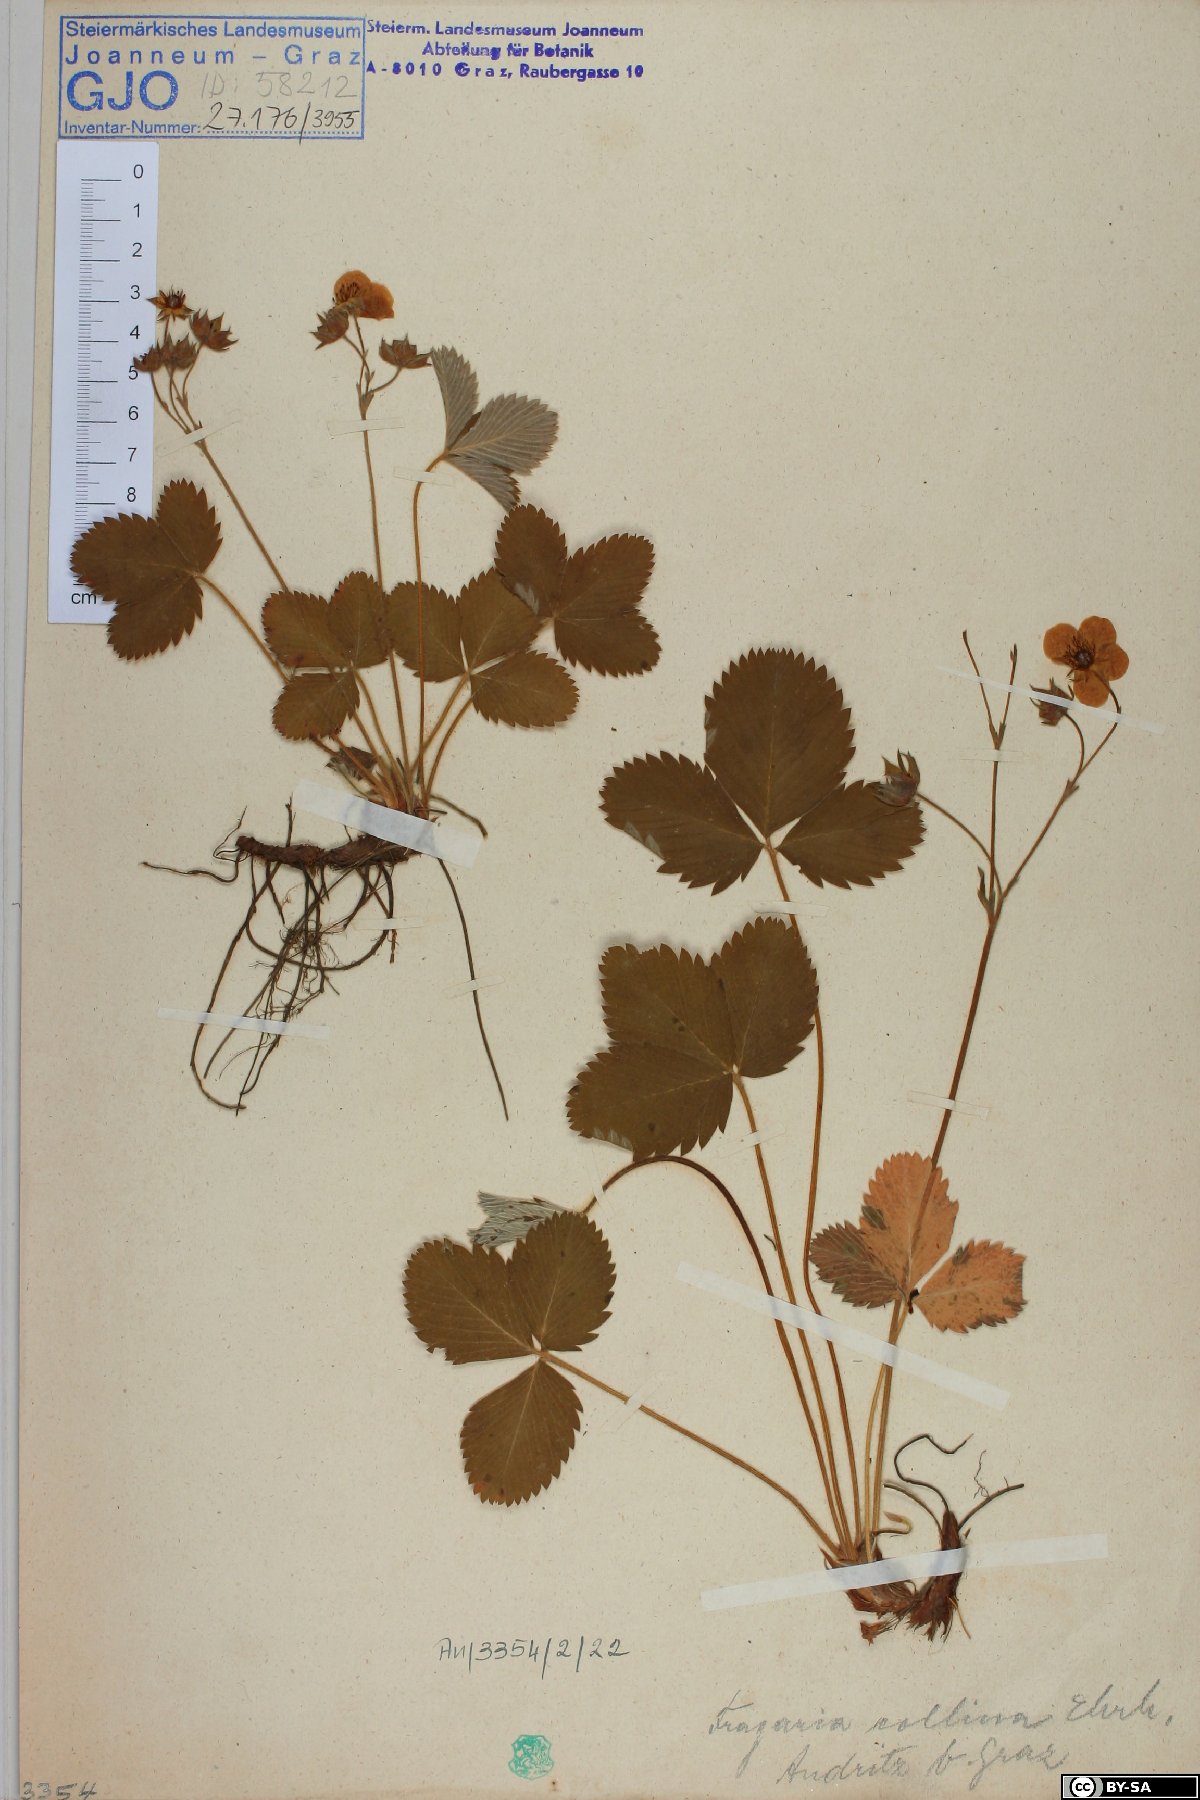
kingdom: Plantae
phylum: Tracheophyta
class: Magnoliopsida
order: Rosales
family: Rosaceae
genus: Fragaria
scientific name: Fragaria viridis
